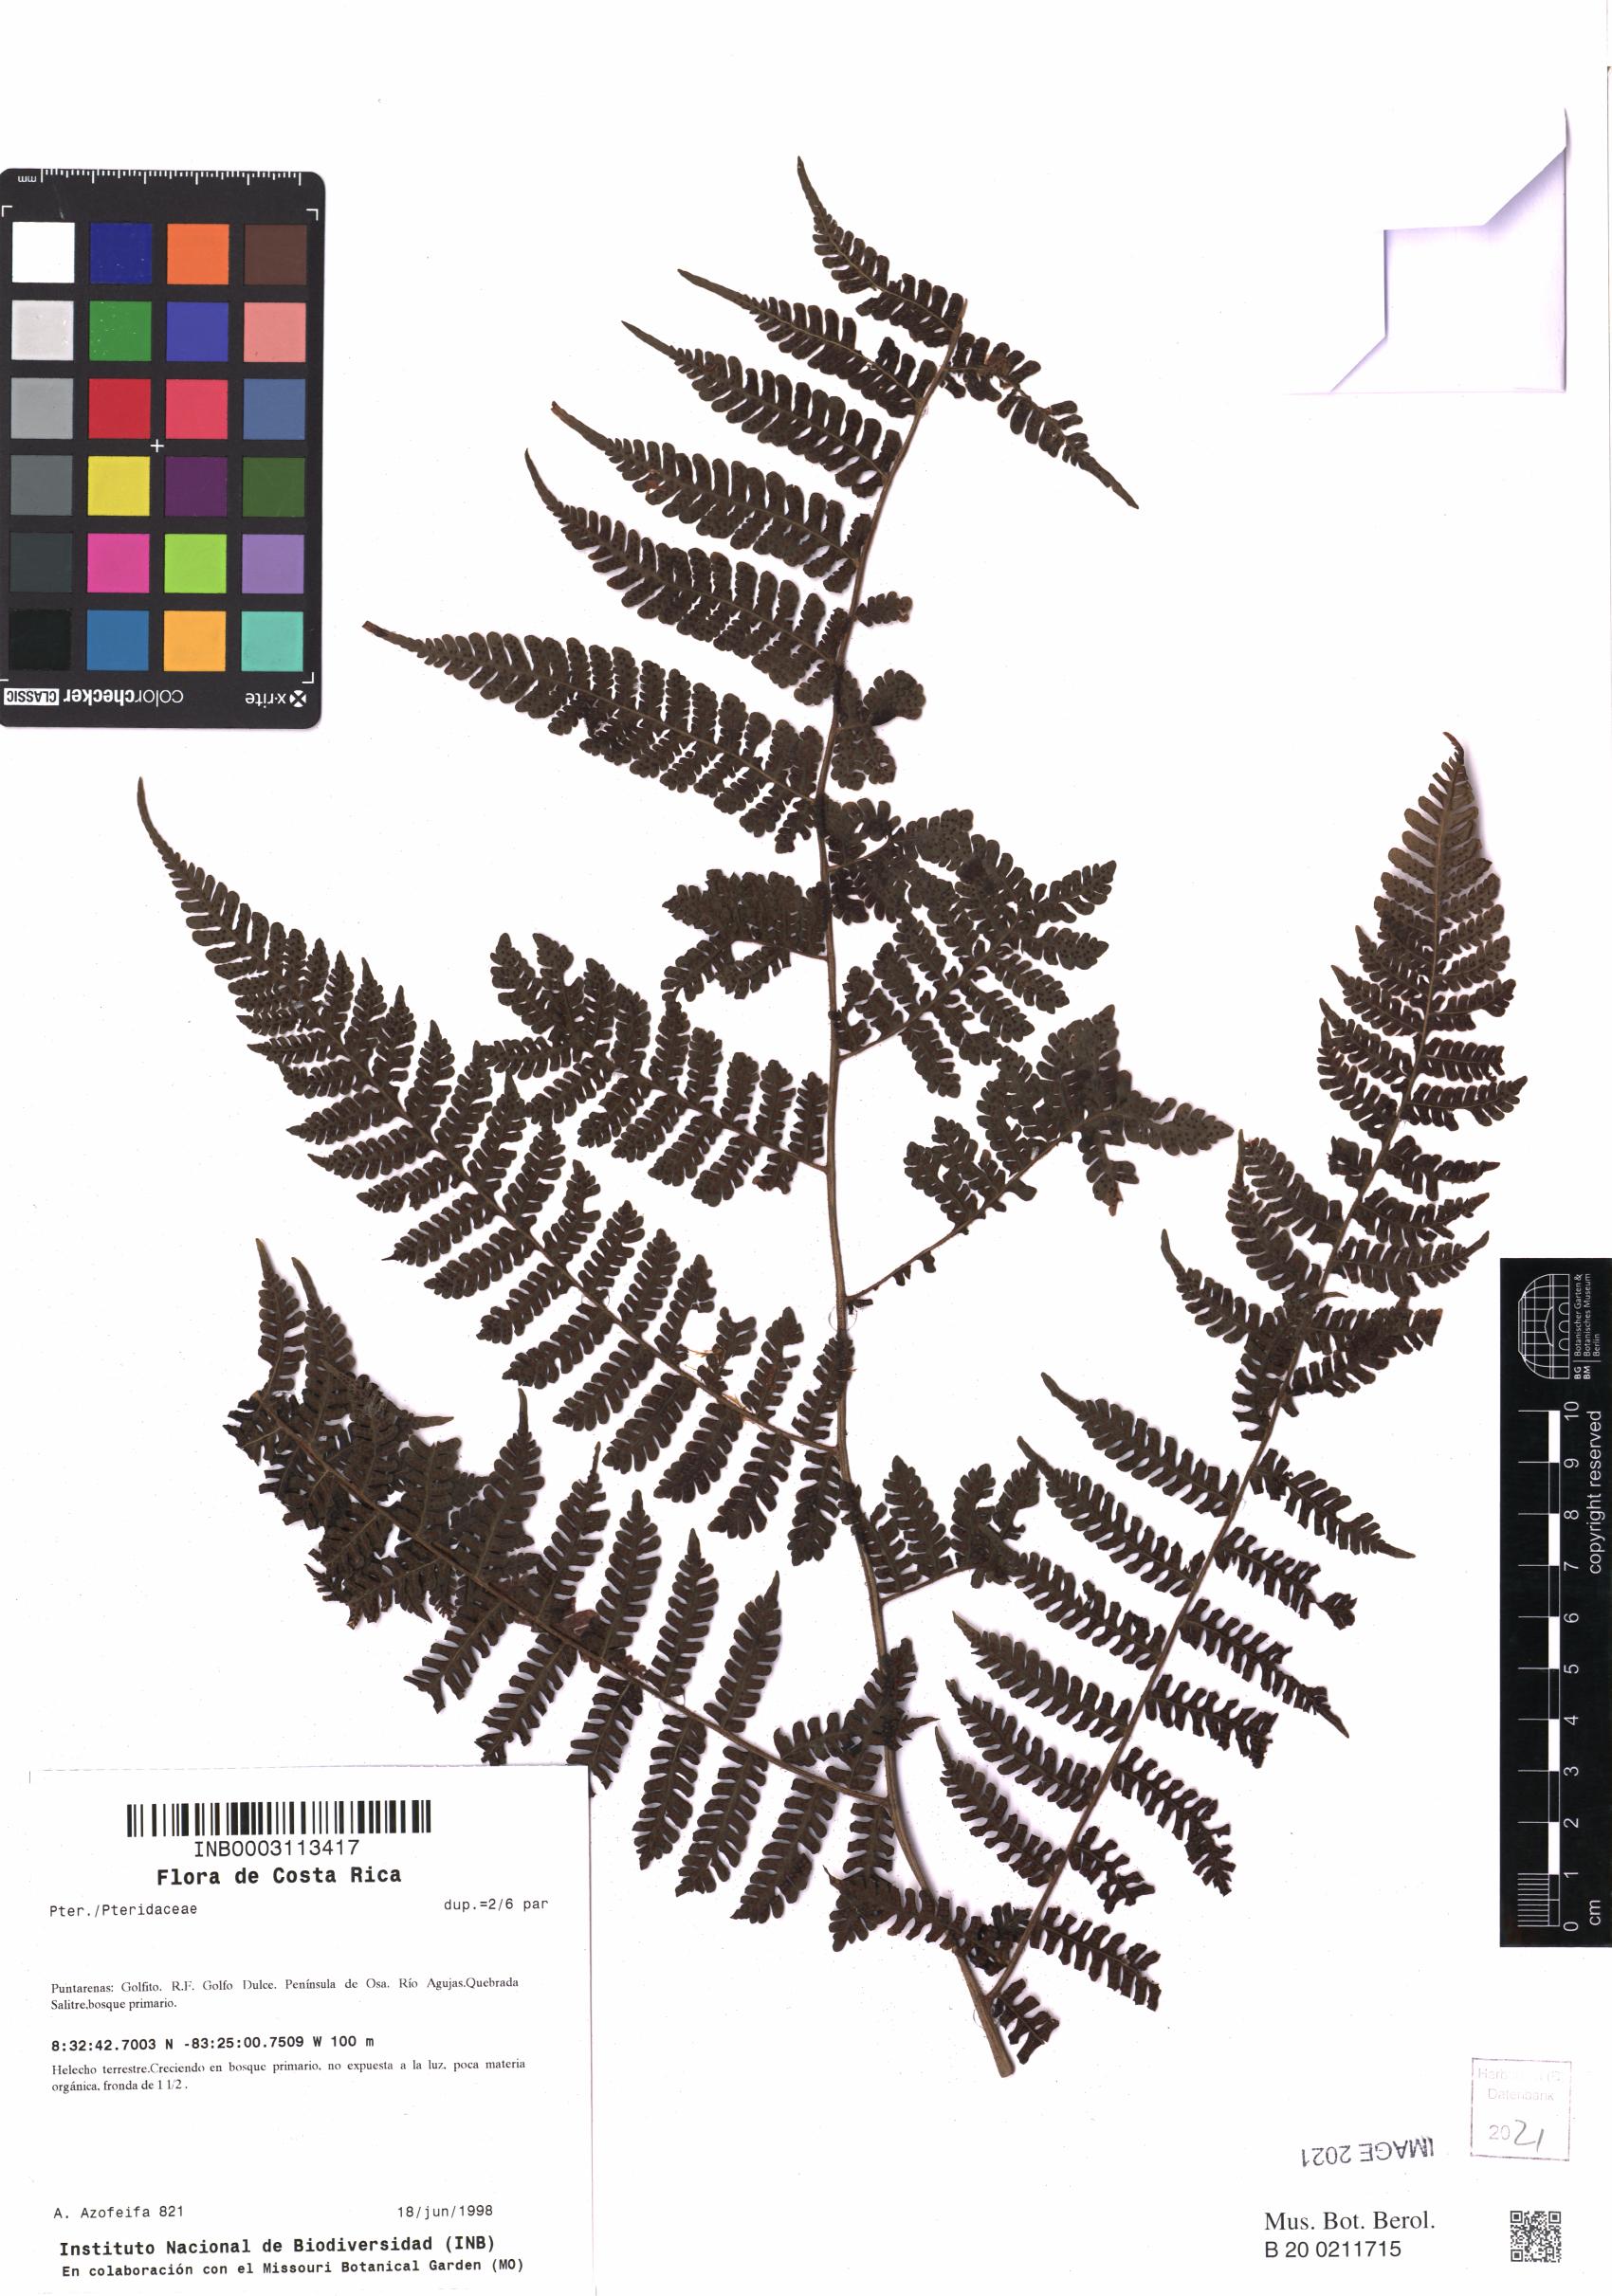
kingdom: Plantae
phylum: Tracheophyta
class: Polypodiopsida
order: Polypodiales
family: Pteridaceae
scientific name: Pteridaceae
